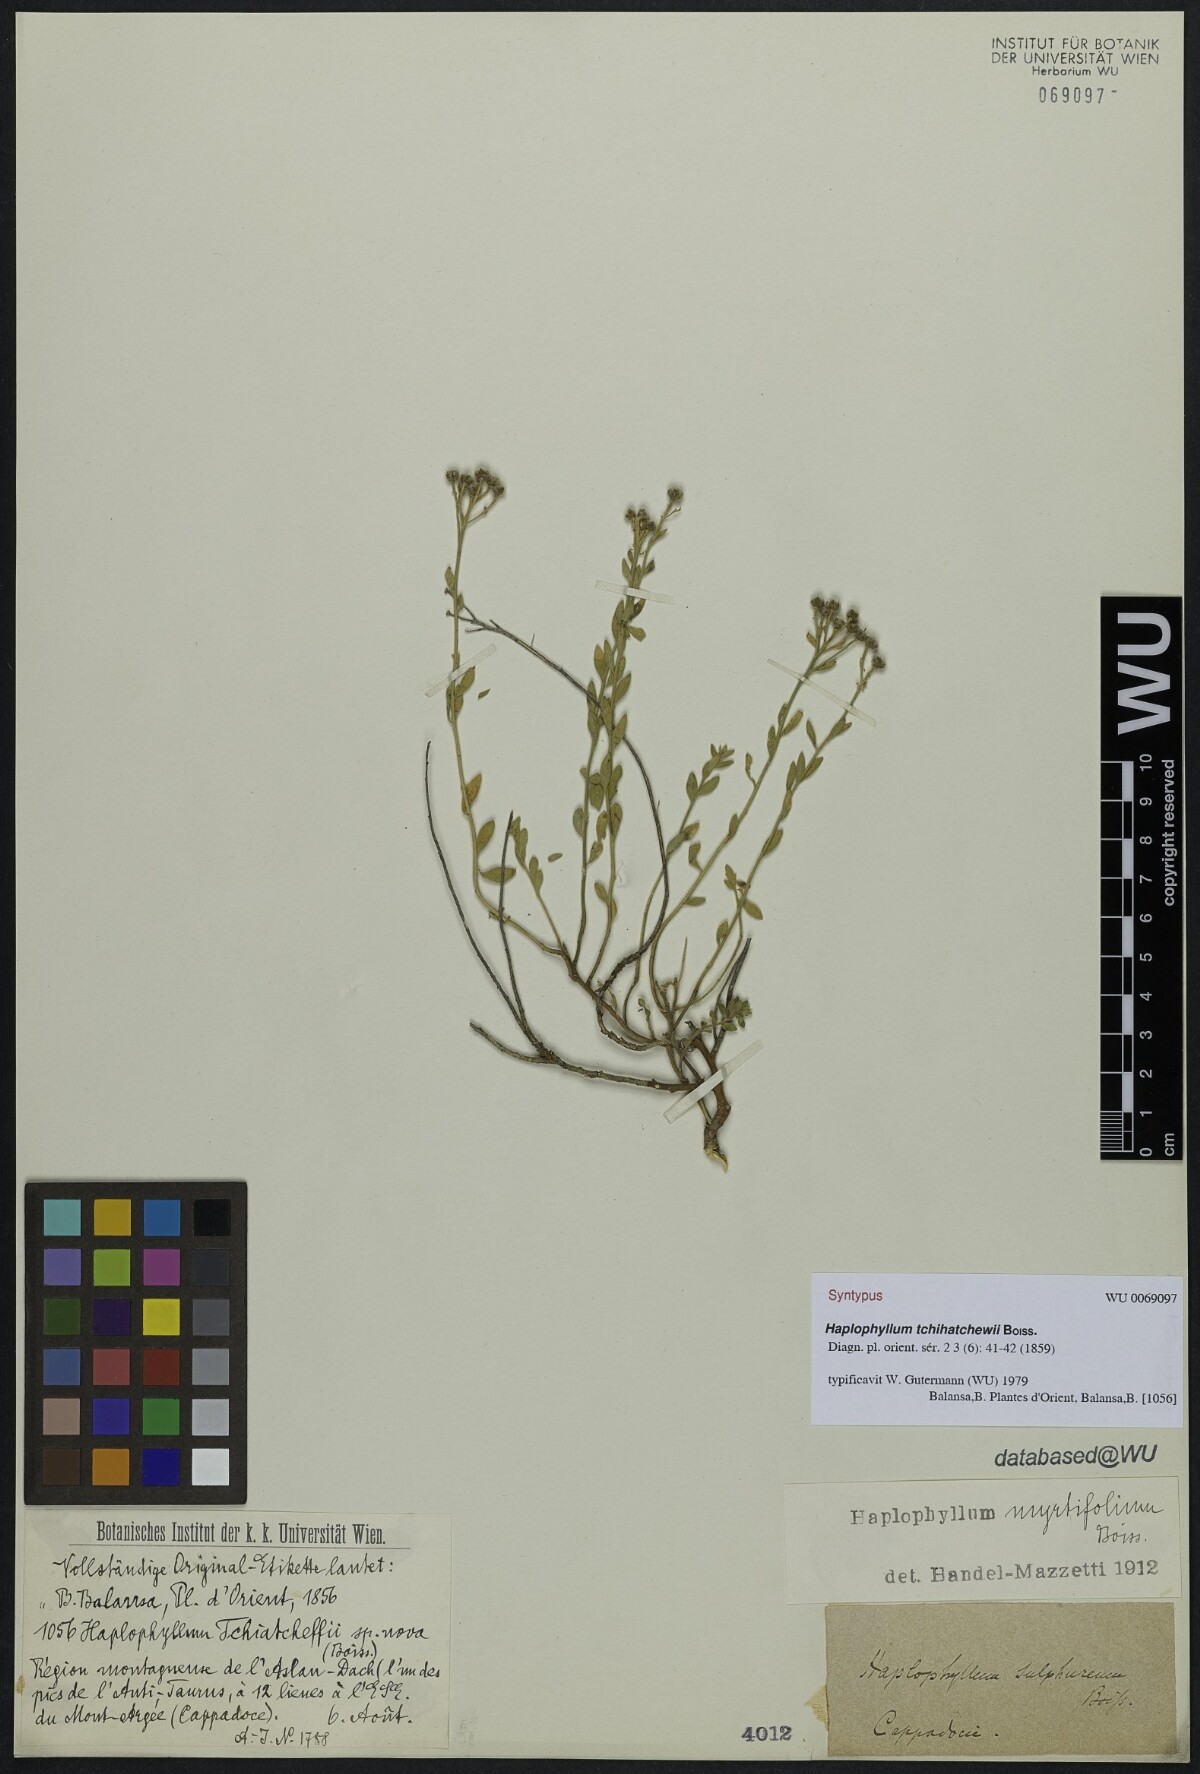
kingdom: Plantae
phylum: Tracheophyta
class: Magnoliopsida
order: Sapindales
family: Rutaceae
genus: Haplophyllum
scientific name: Haplophyllum myrtifolium
